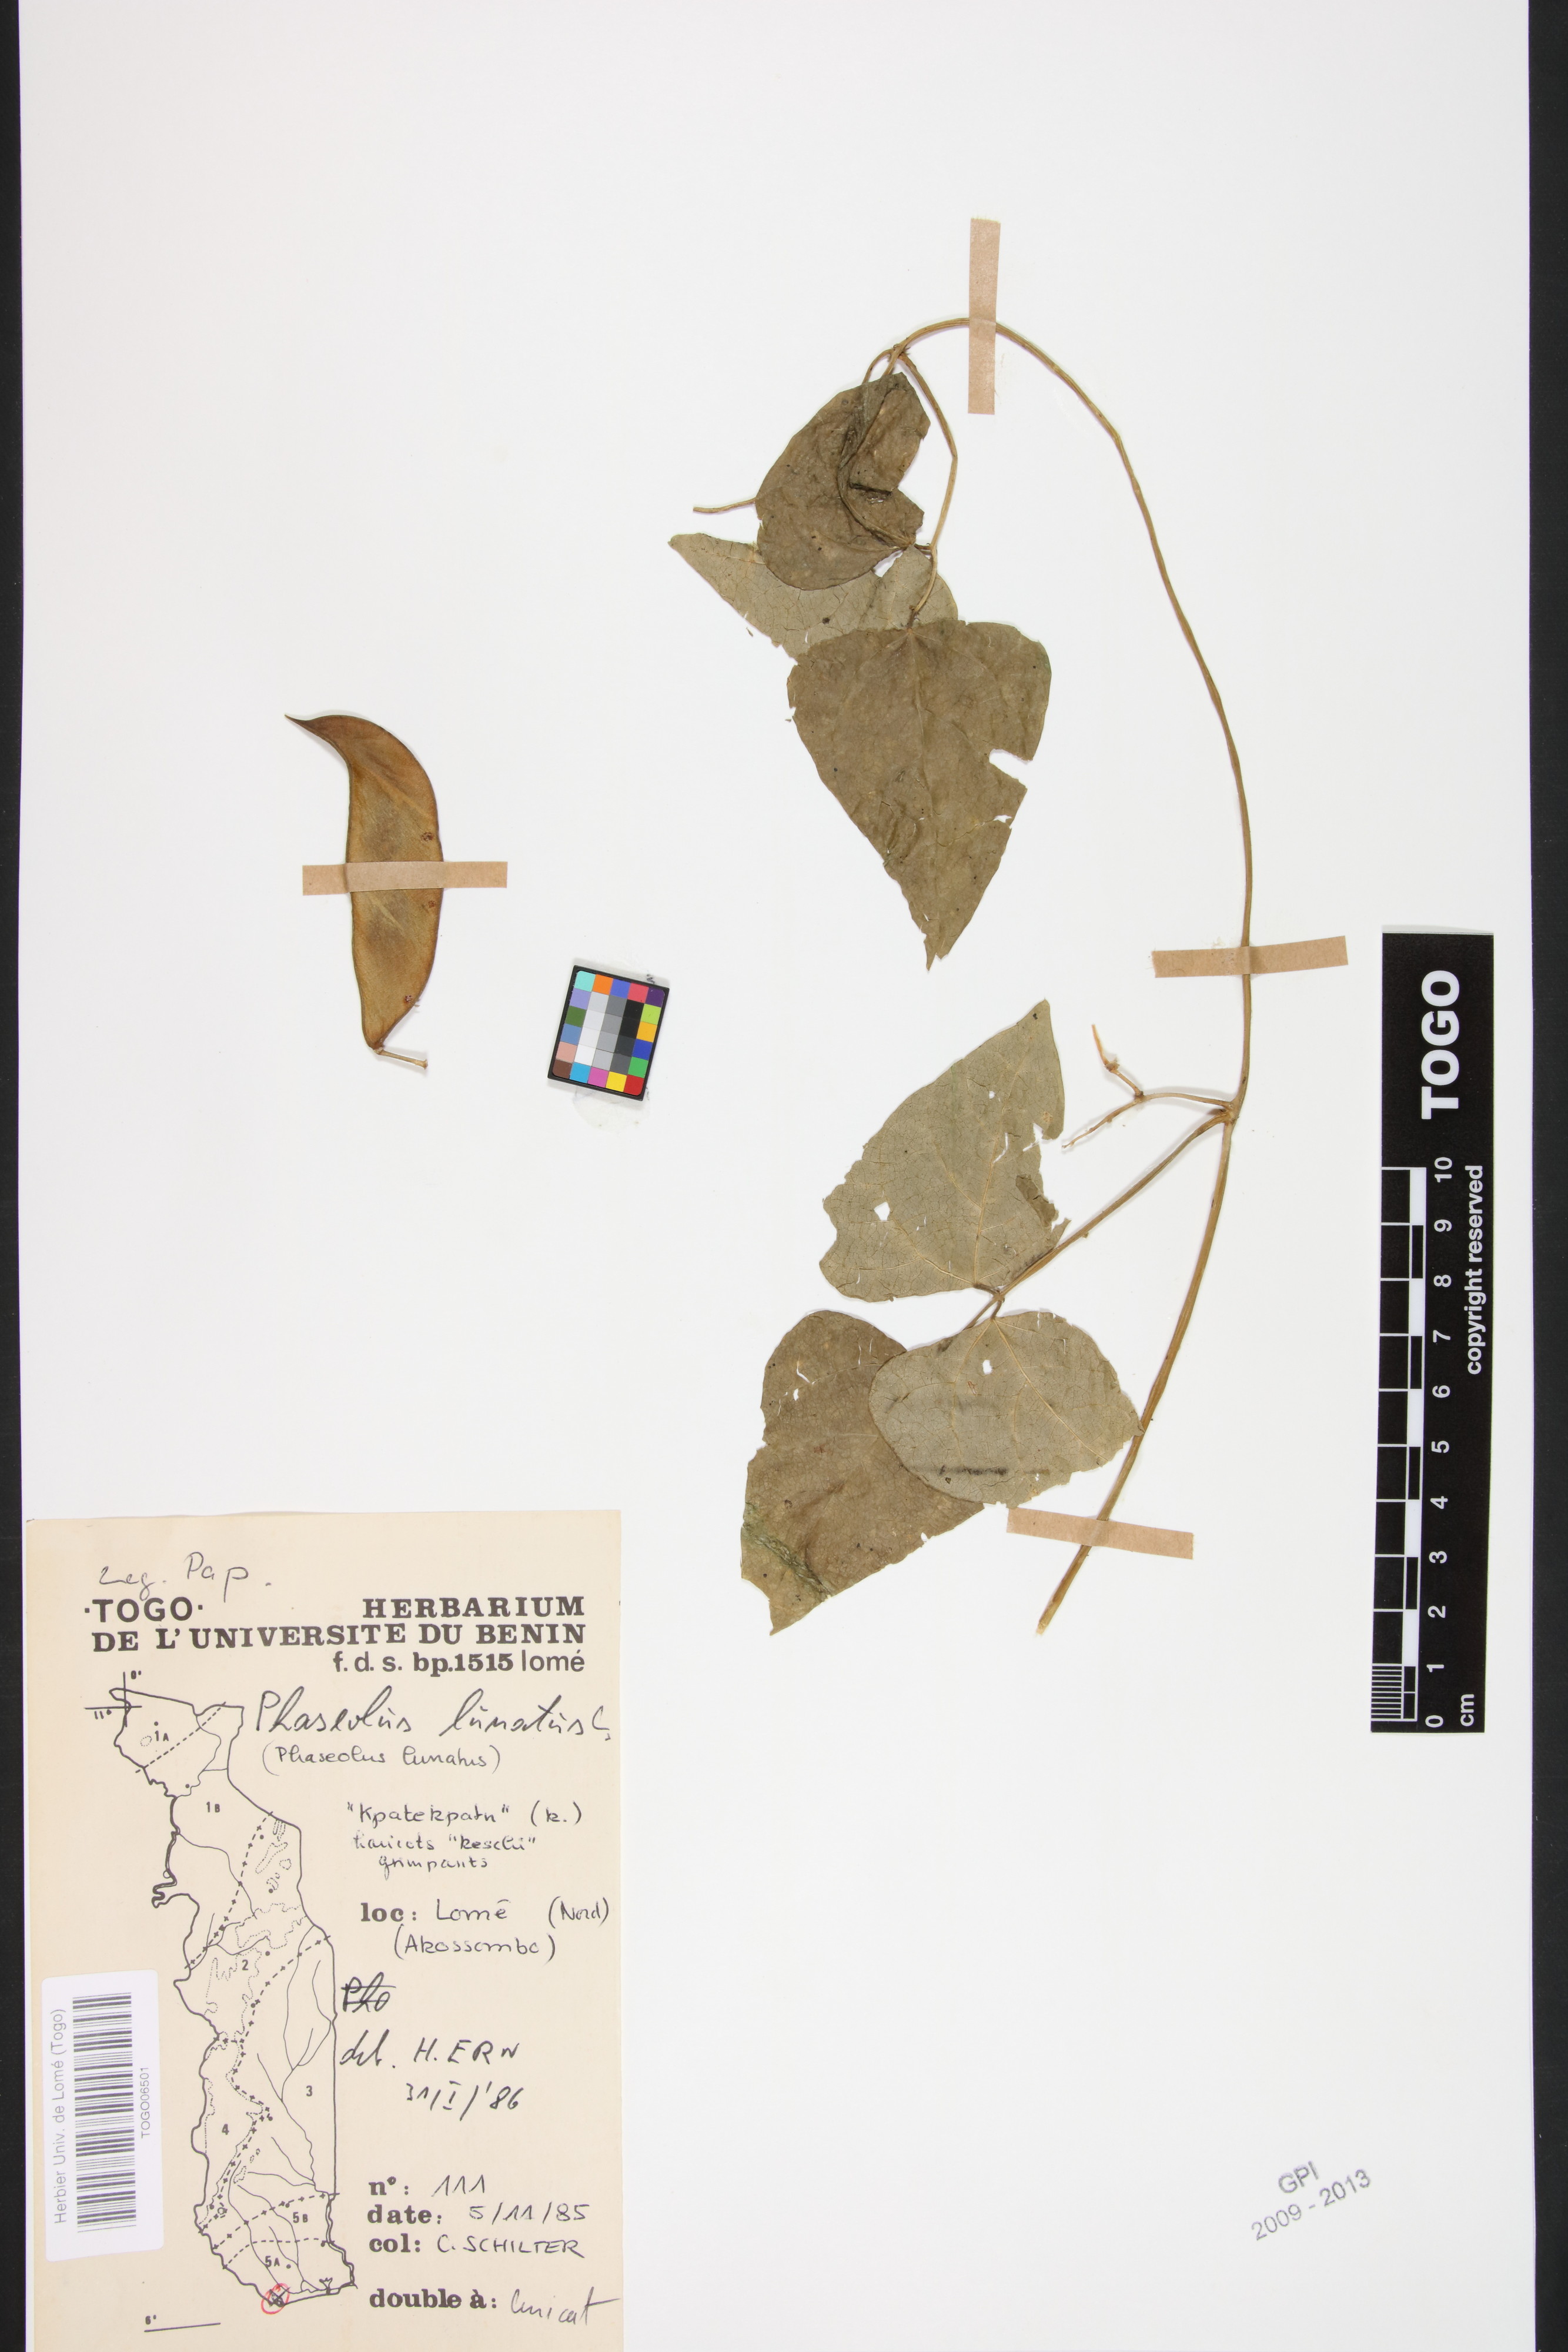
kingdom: Plantae
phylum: Tracheophyta
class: Magnoliopsida
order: Fabales
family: Fabaceae
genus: Phaseolus
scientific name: Phaseolus lunatus
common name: Sieva bean
